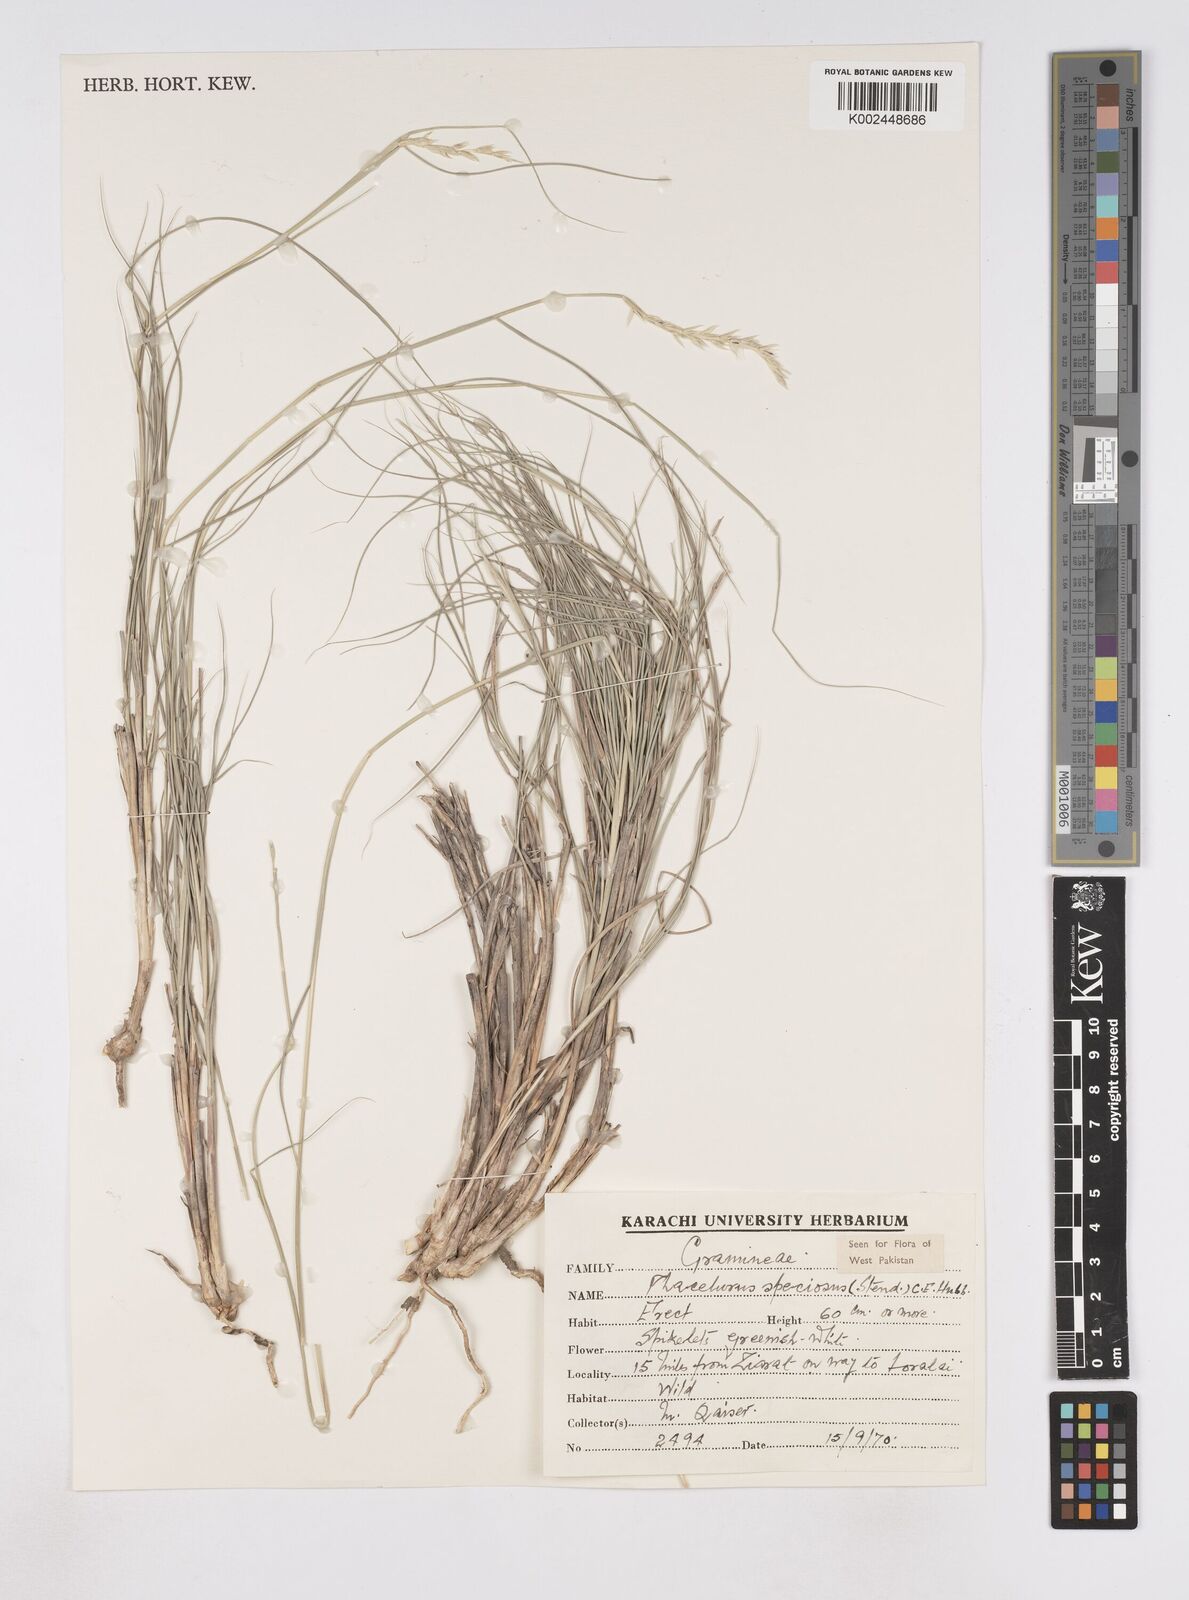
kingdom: Plantae
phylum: Tracheophyta
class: Liliopsida
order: Poales
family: Poaceae
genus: Phacelurus
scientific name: Phacelurus speciosus
